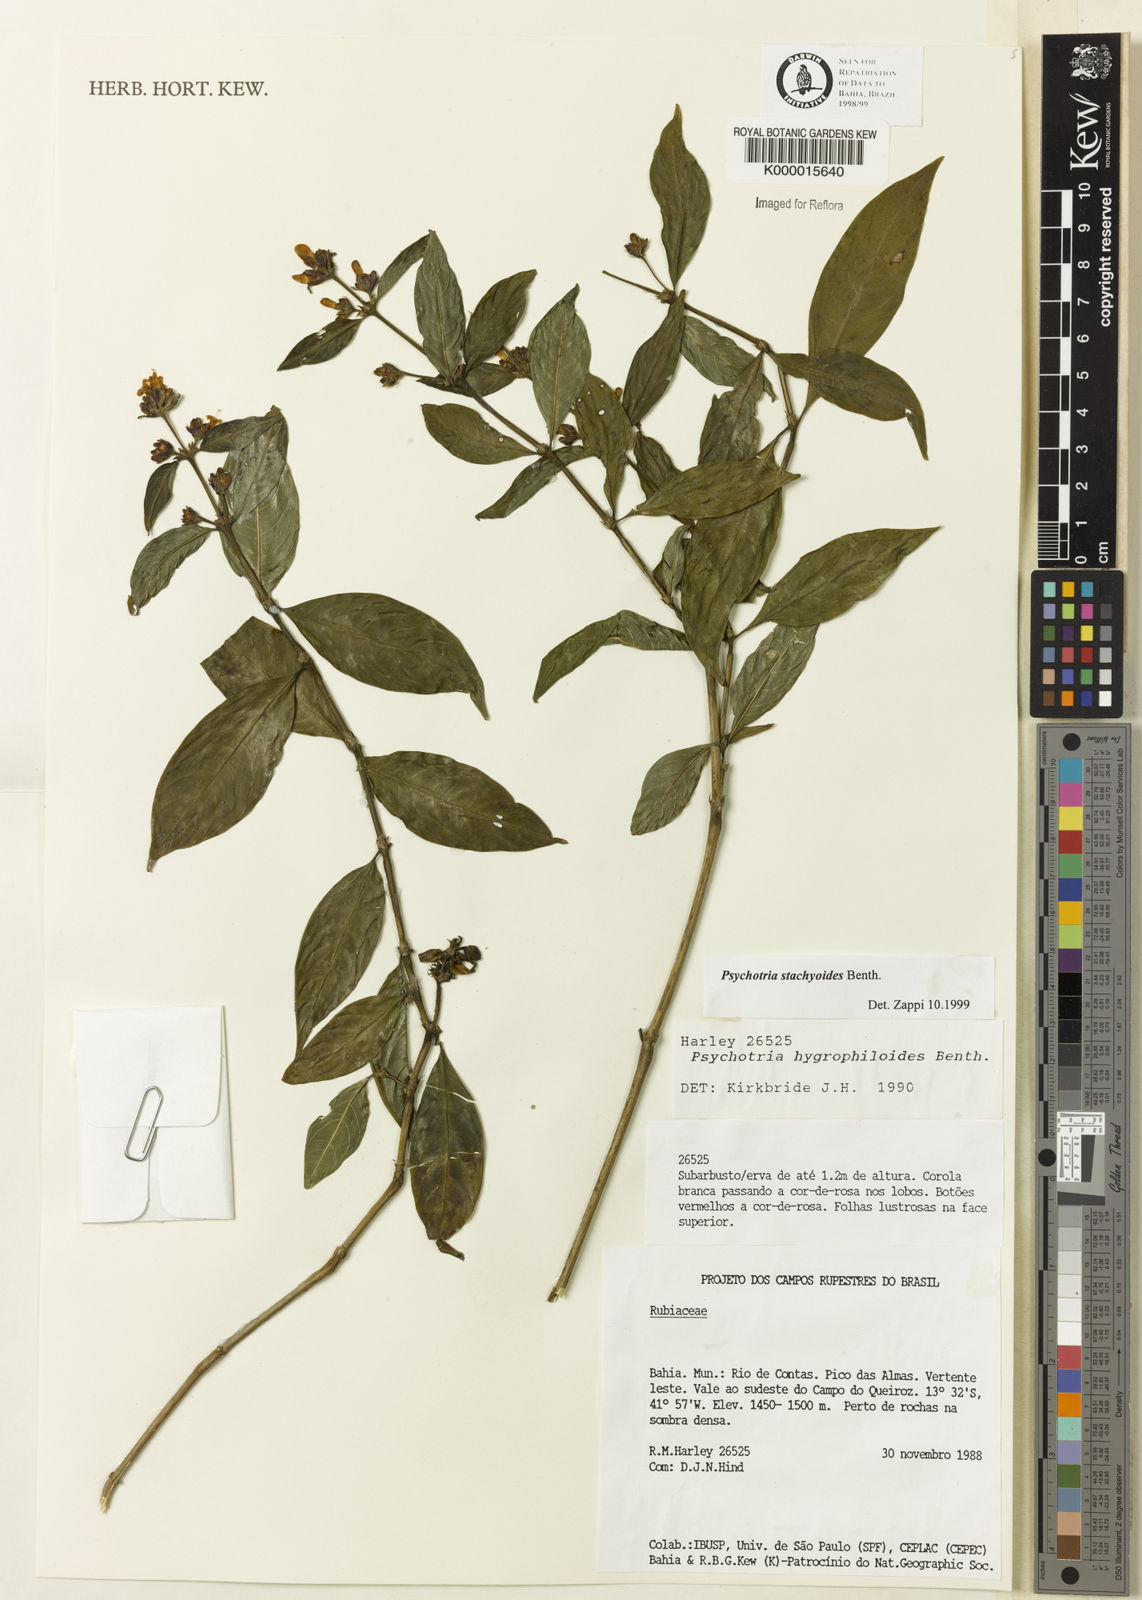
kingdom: Plantae
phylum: Tracheophyta
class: Magnoliopsida
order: Gentianales
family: Rubiaceae
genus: Psychotria
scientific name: Psychotria stachyoides
